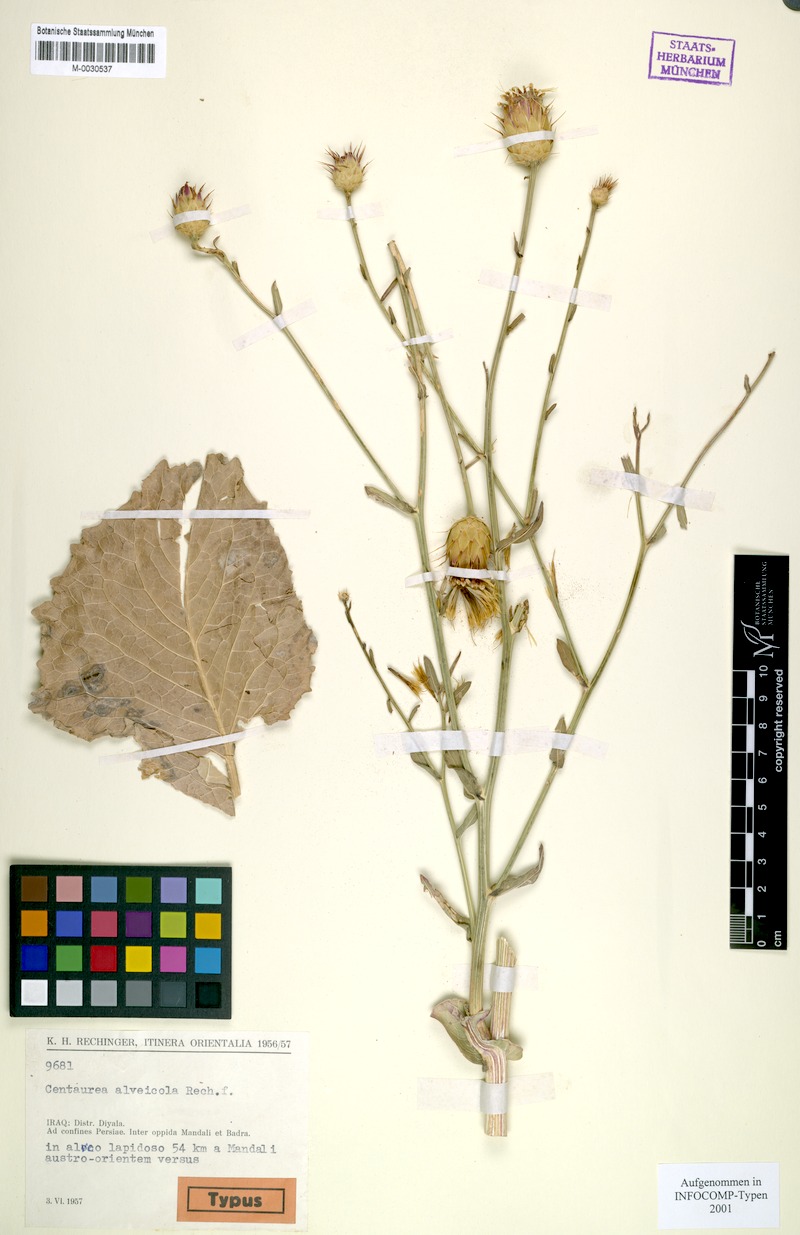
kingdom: Plantae
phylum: Tracheophyta
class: Magnoliopsida
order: Asterales
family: Asteraceae
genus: Centaurea
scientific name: Centaurea alveicola
